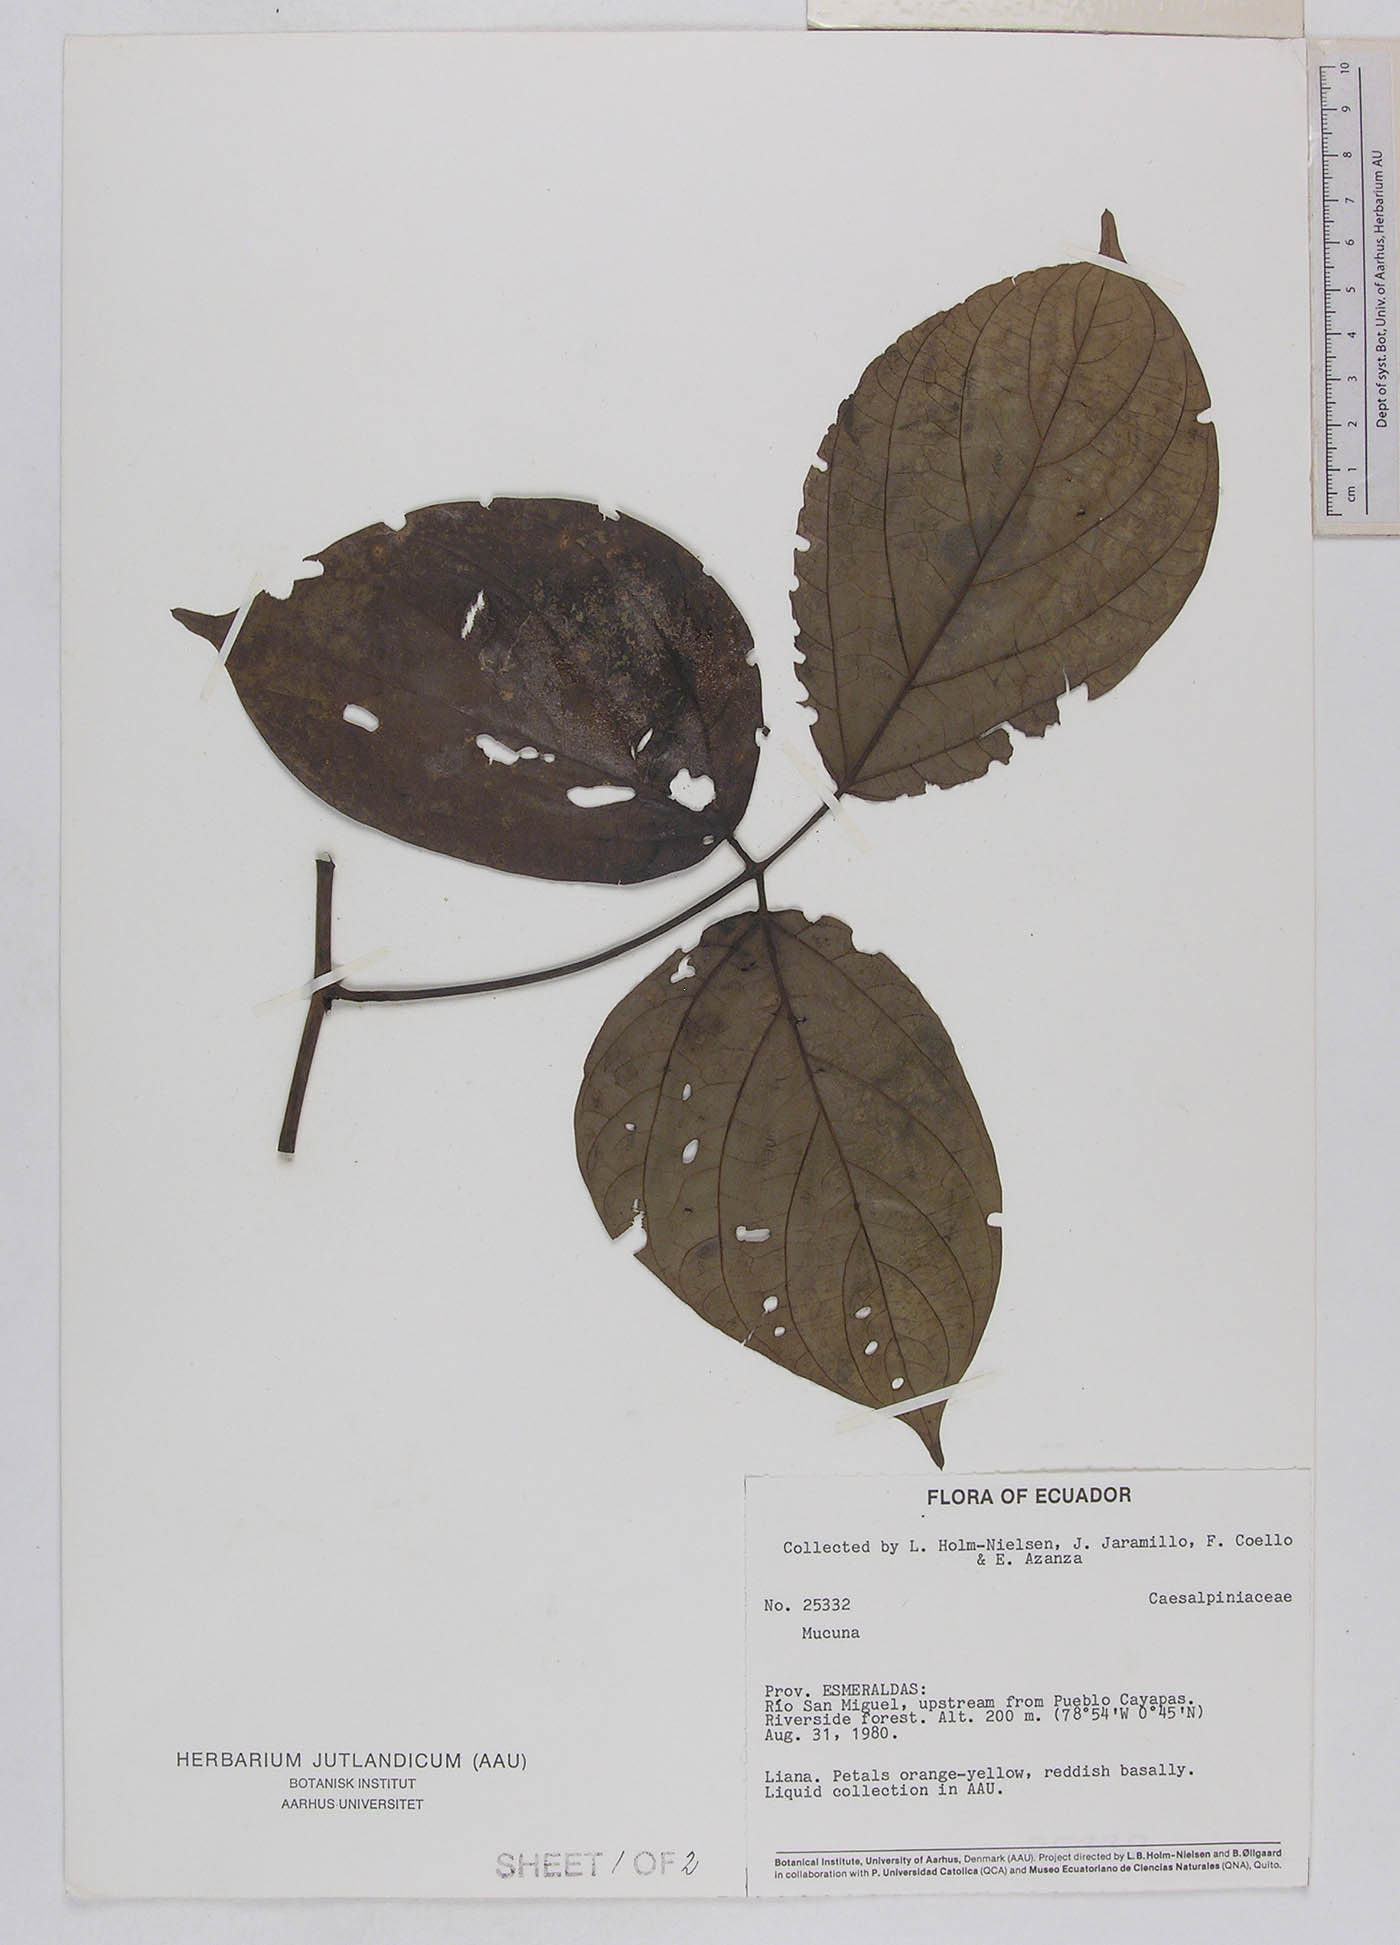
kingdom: Plantae
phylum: Tracheophyta
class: Magnoliopsida
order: Fabales
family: Fabaceae
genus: Mucuna
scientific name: Mucuna rostrata
